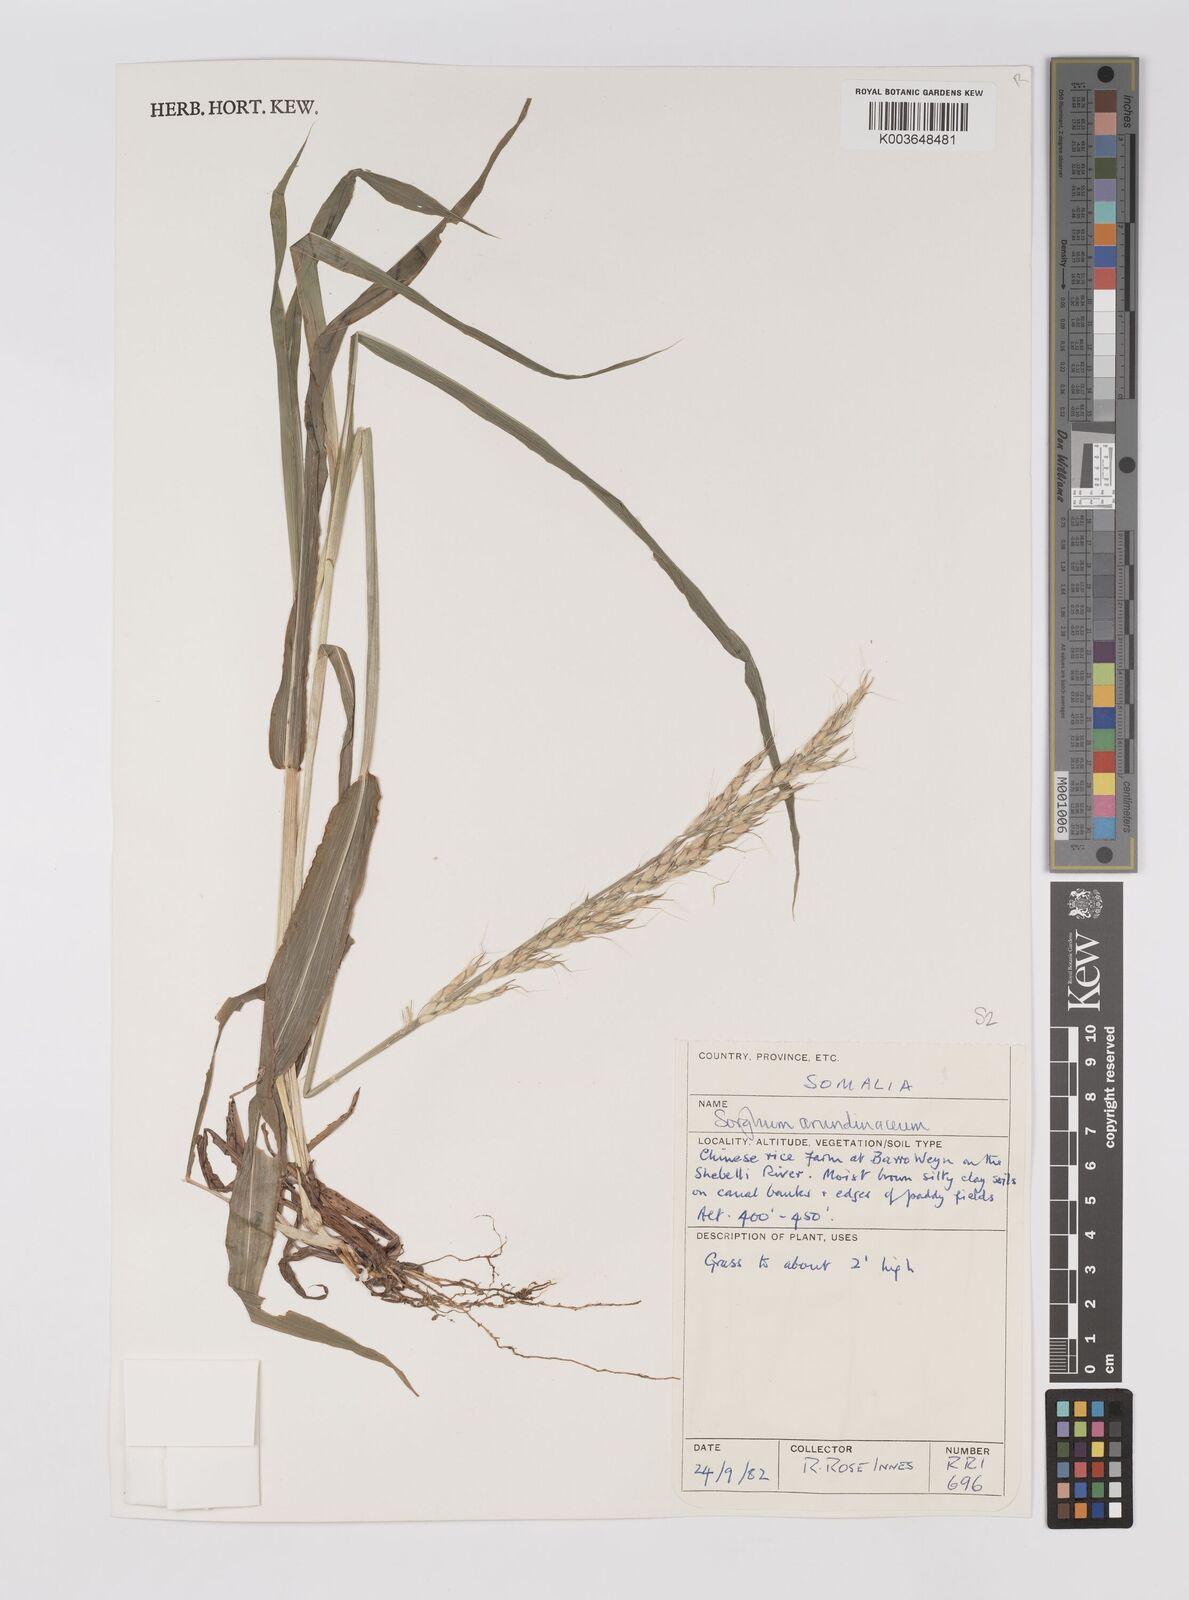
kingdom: Plantae
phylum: Tracheophyta
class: Liliopsida
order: Poales
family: Poaceae
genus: Sorghum
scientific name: Sorghum arundinaceum
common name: Sorghum
